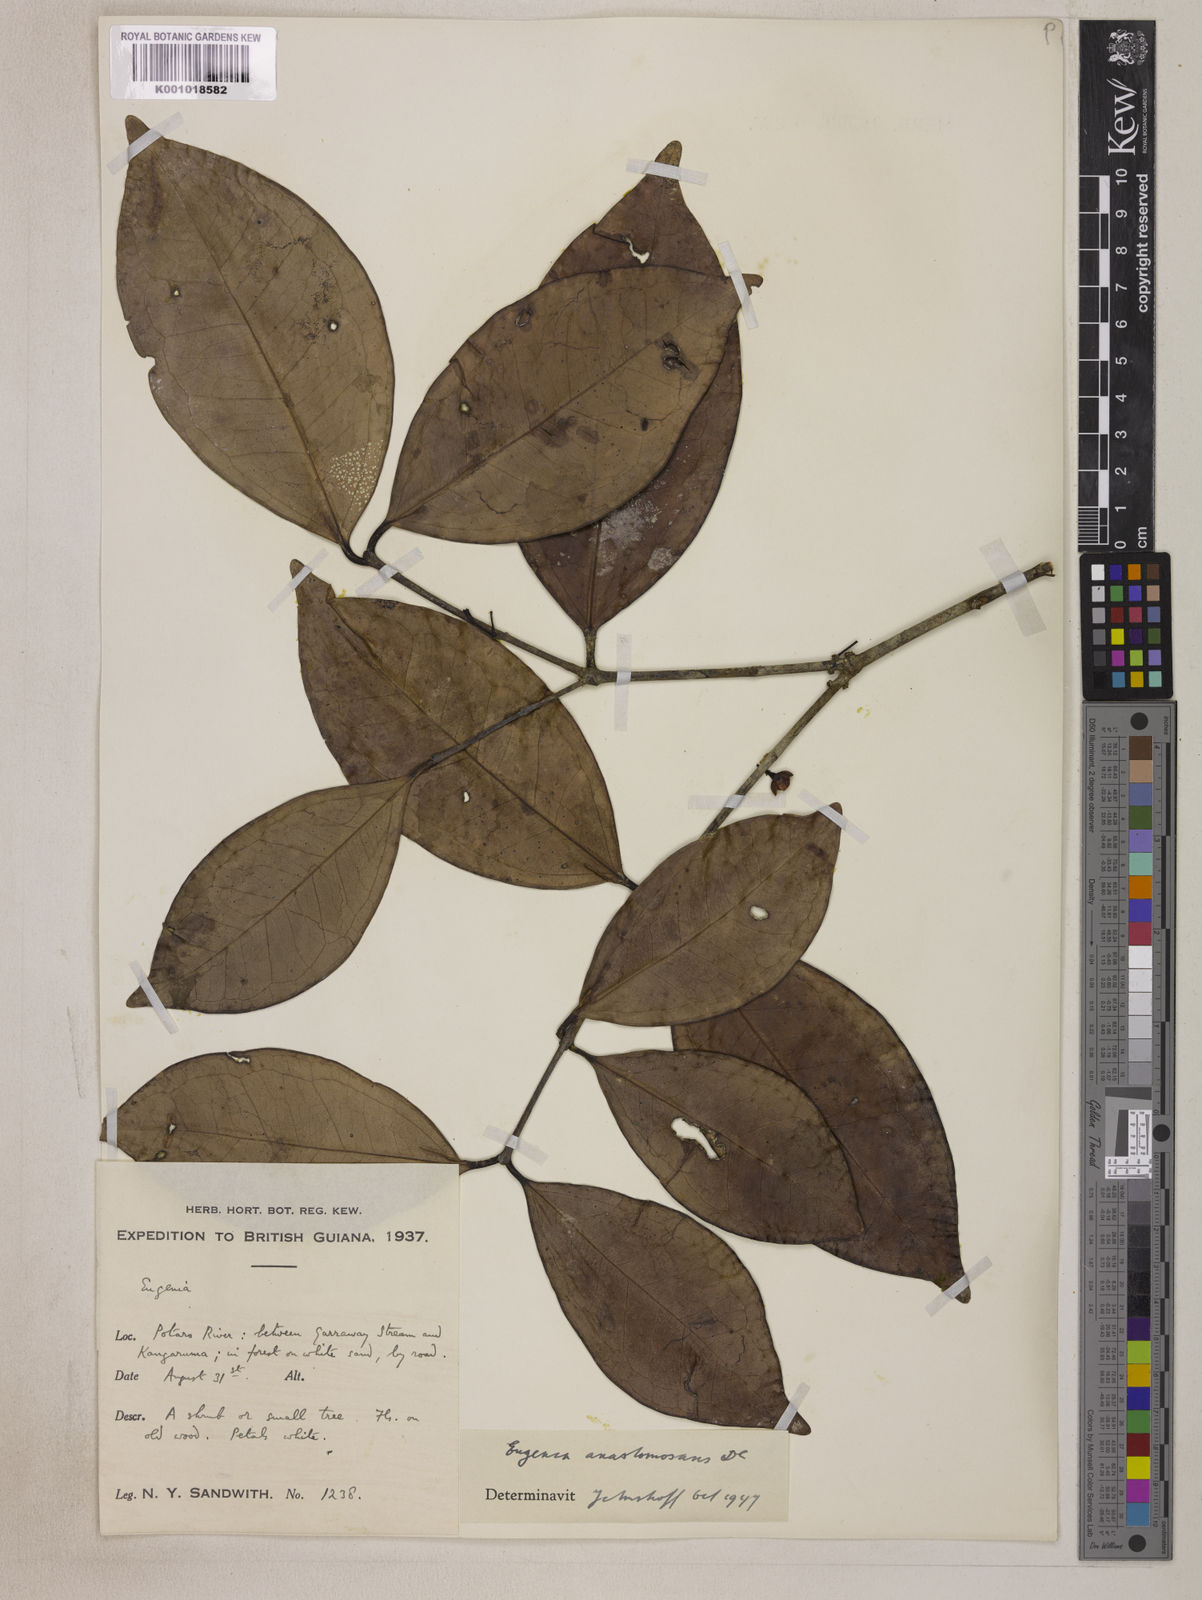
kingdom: Plantae
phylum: Tracheophyta
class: Magnoliopsida
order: Myrtales
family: Myrtaceae
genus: Eugenia
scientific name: Eugenia anastomosans
